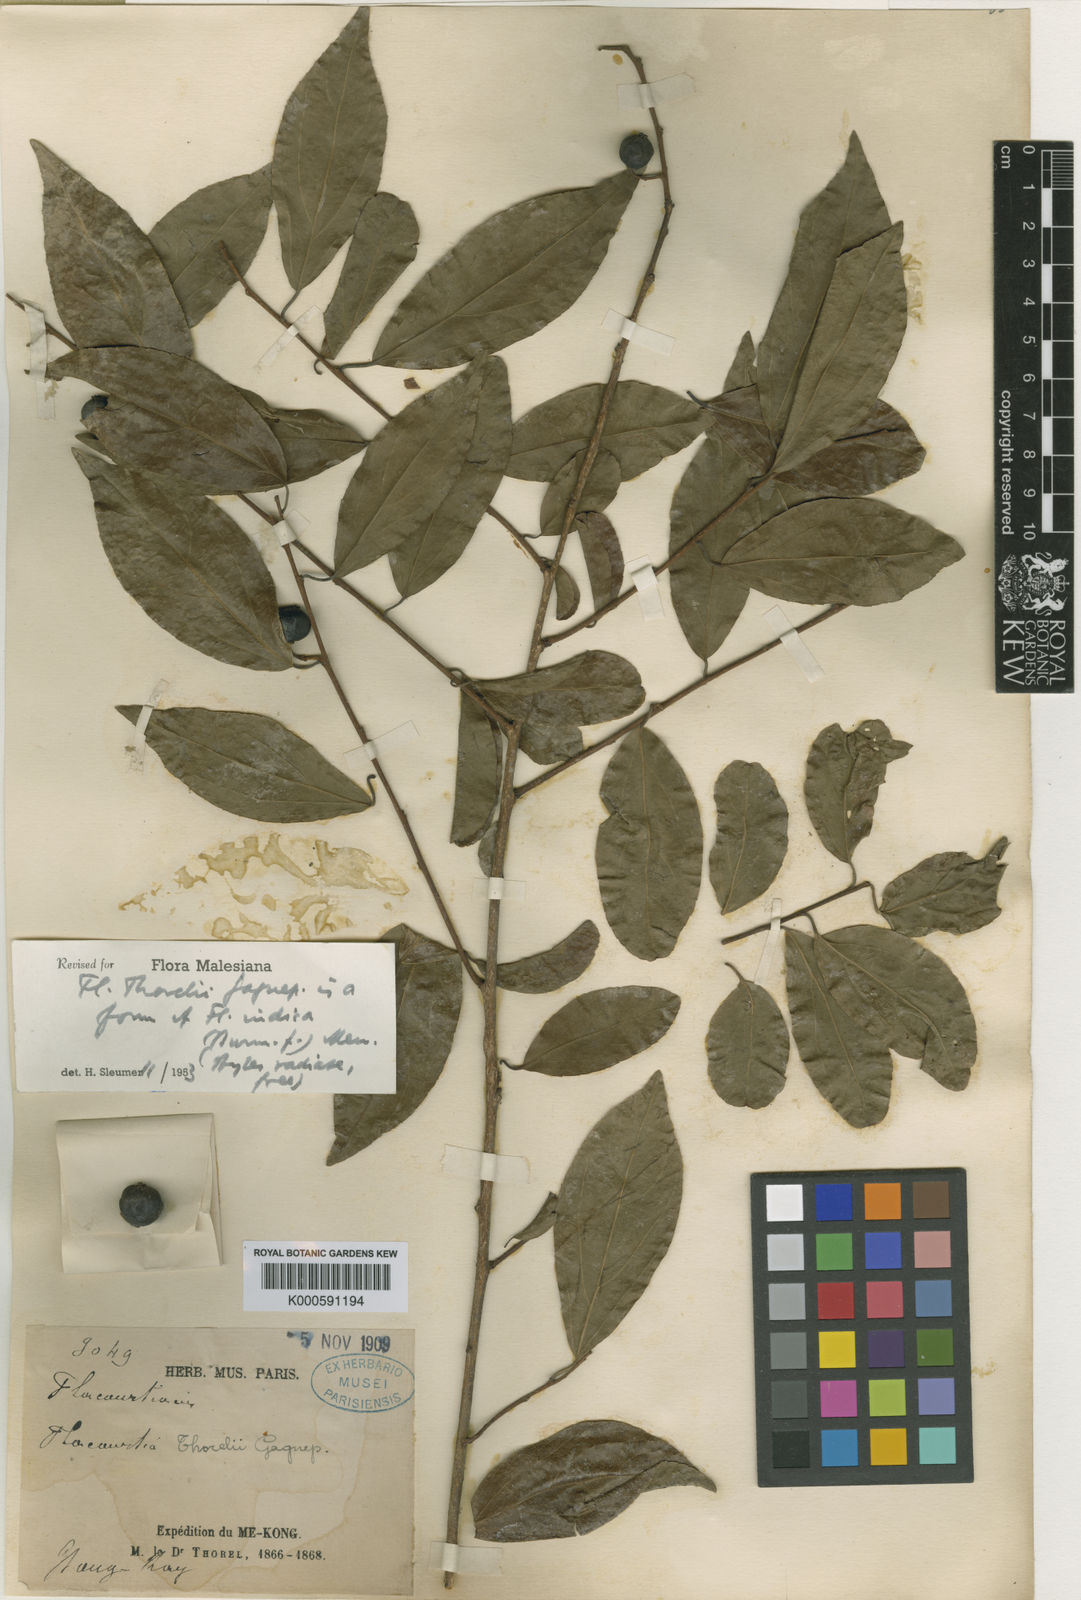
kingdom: Plantae
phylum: Tracheophyta
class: Magnoliopsida
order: Malpighiales
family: Salicaceae
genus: Flacourtia
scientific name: Flacourtia indica
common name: Governor's plum
